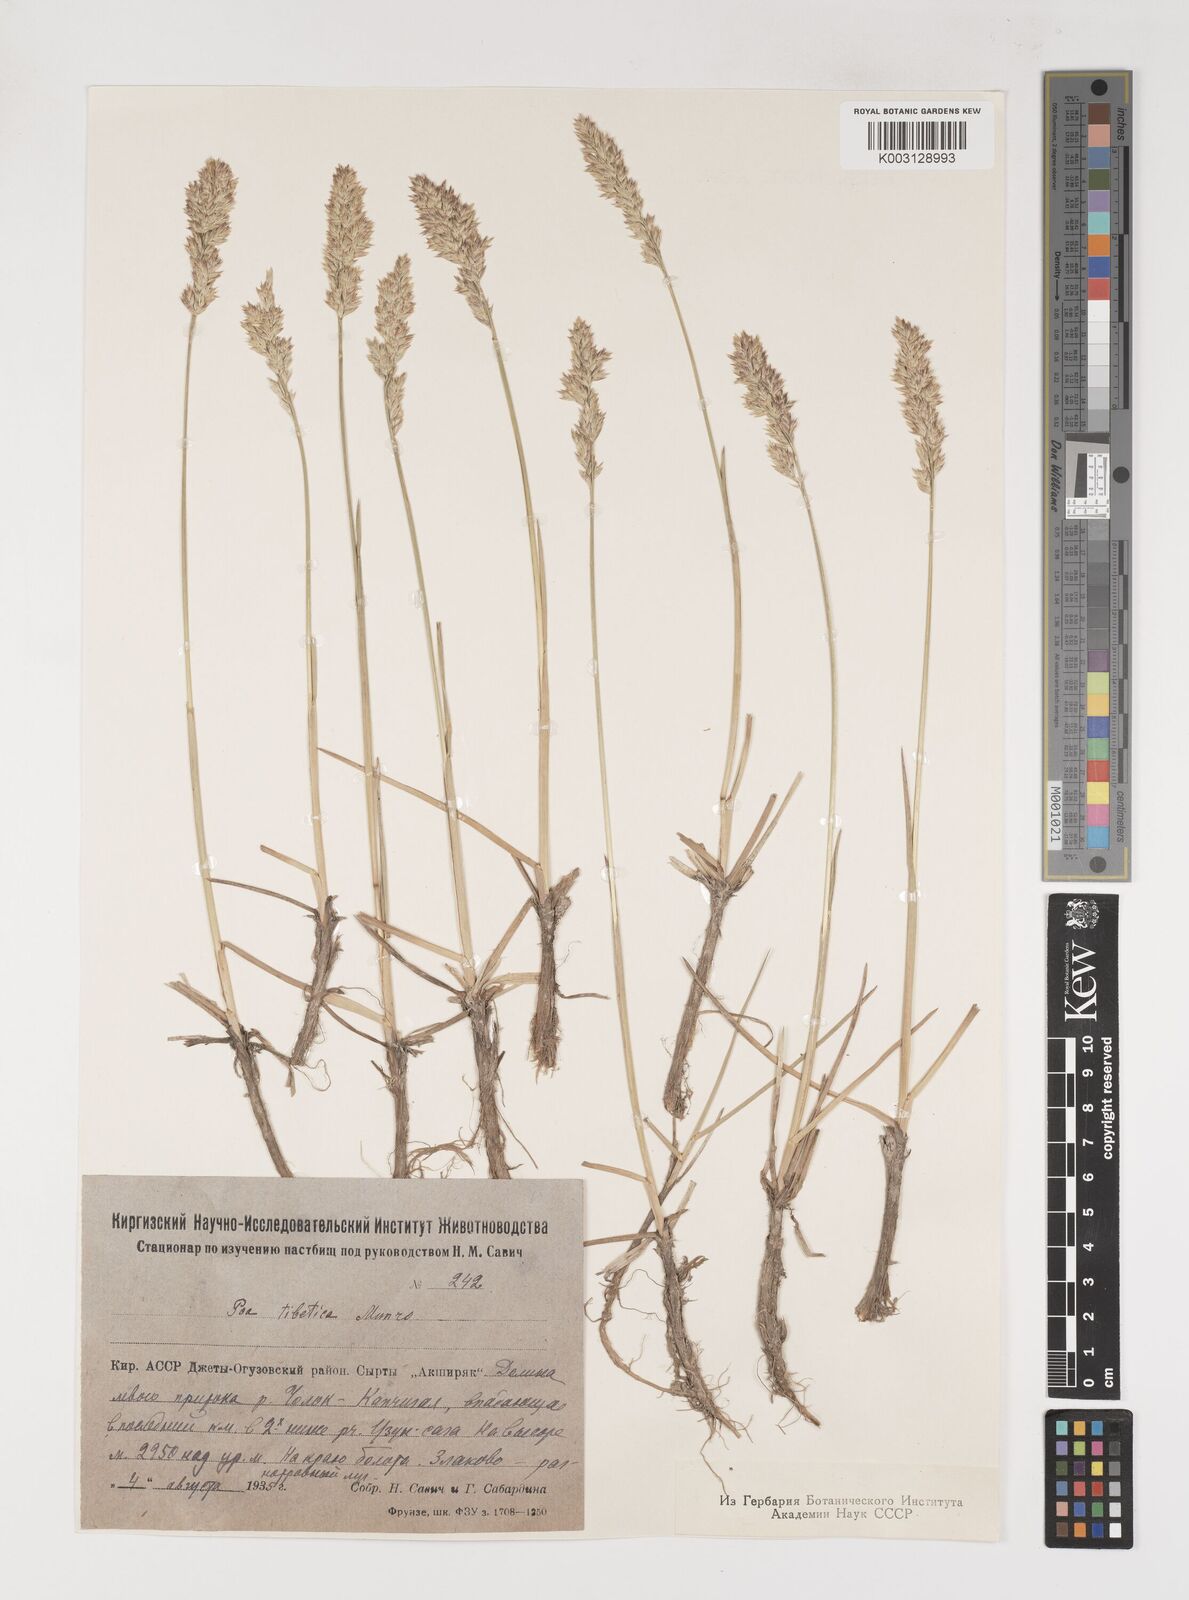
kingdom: Plantae
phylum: Tracheophyta
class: Liliopsida
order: Poales
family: Poaceae
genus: Arctopoa
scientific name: Arctopoa eminens
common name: Eminent bluegrass
